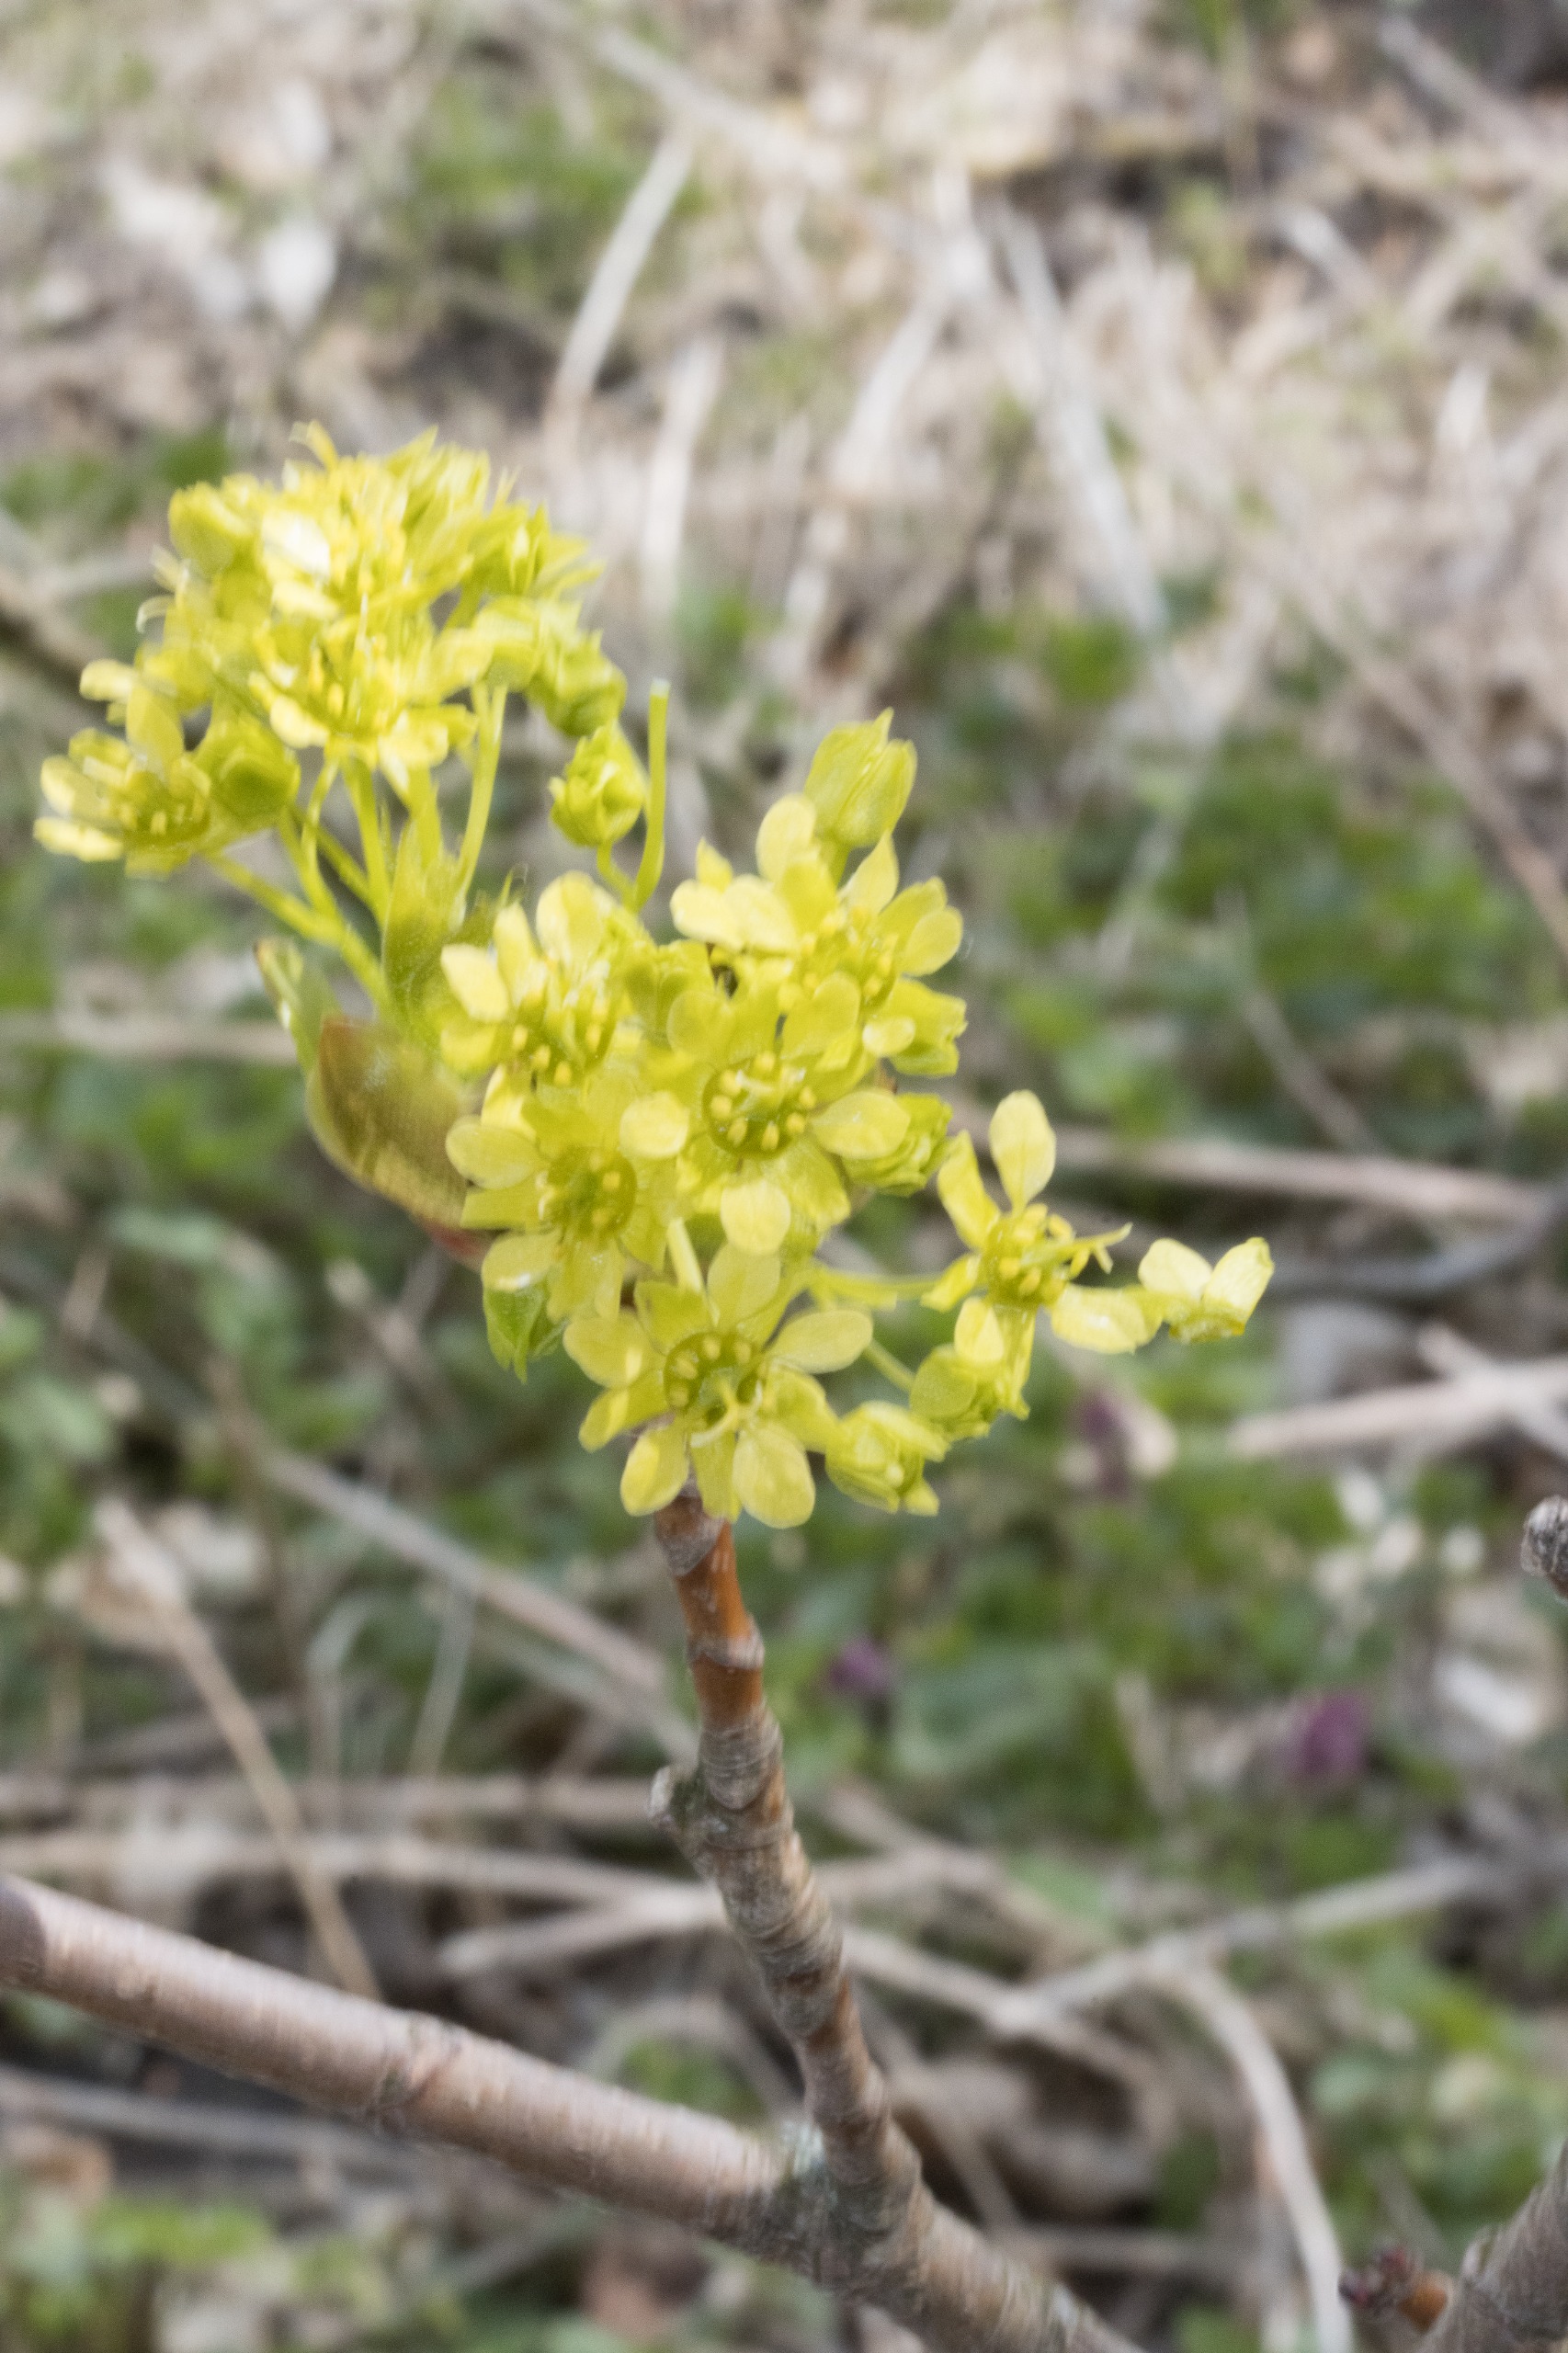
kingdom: Plantae
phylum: Tracheophyta
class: Magnoliopsida
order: Sapindales
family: Sapindaceae
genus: Acer
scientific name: Acer platanoides
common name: Spids-løn
